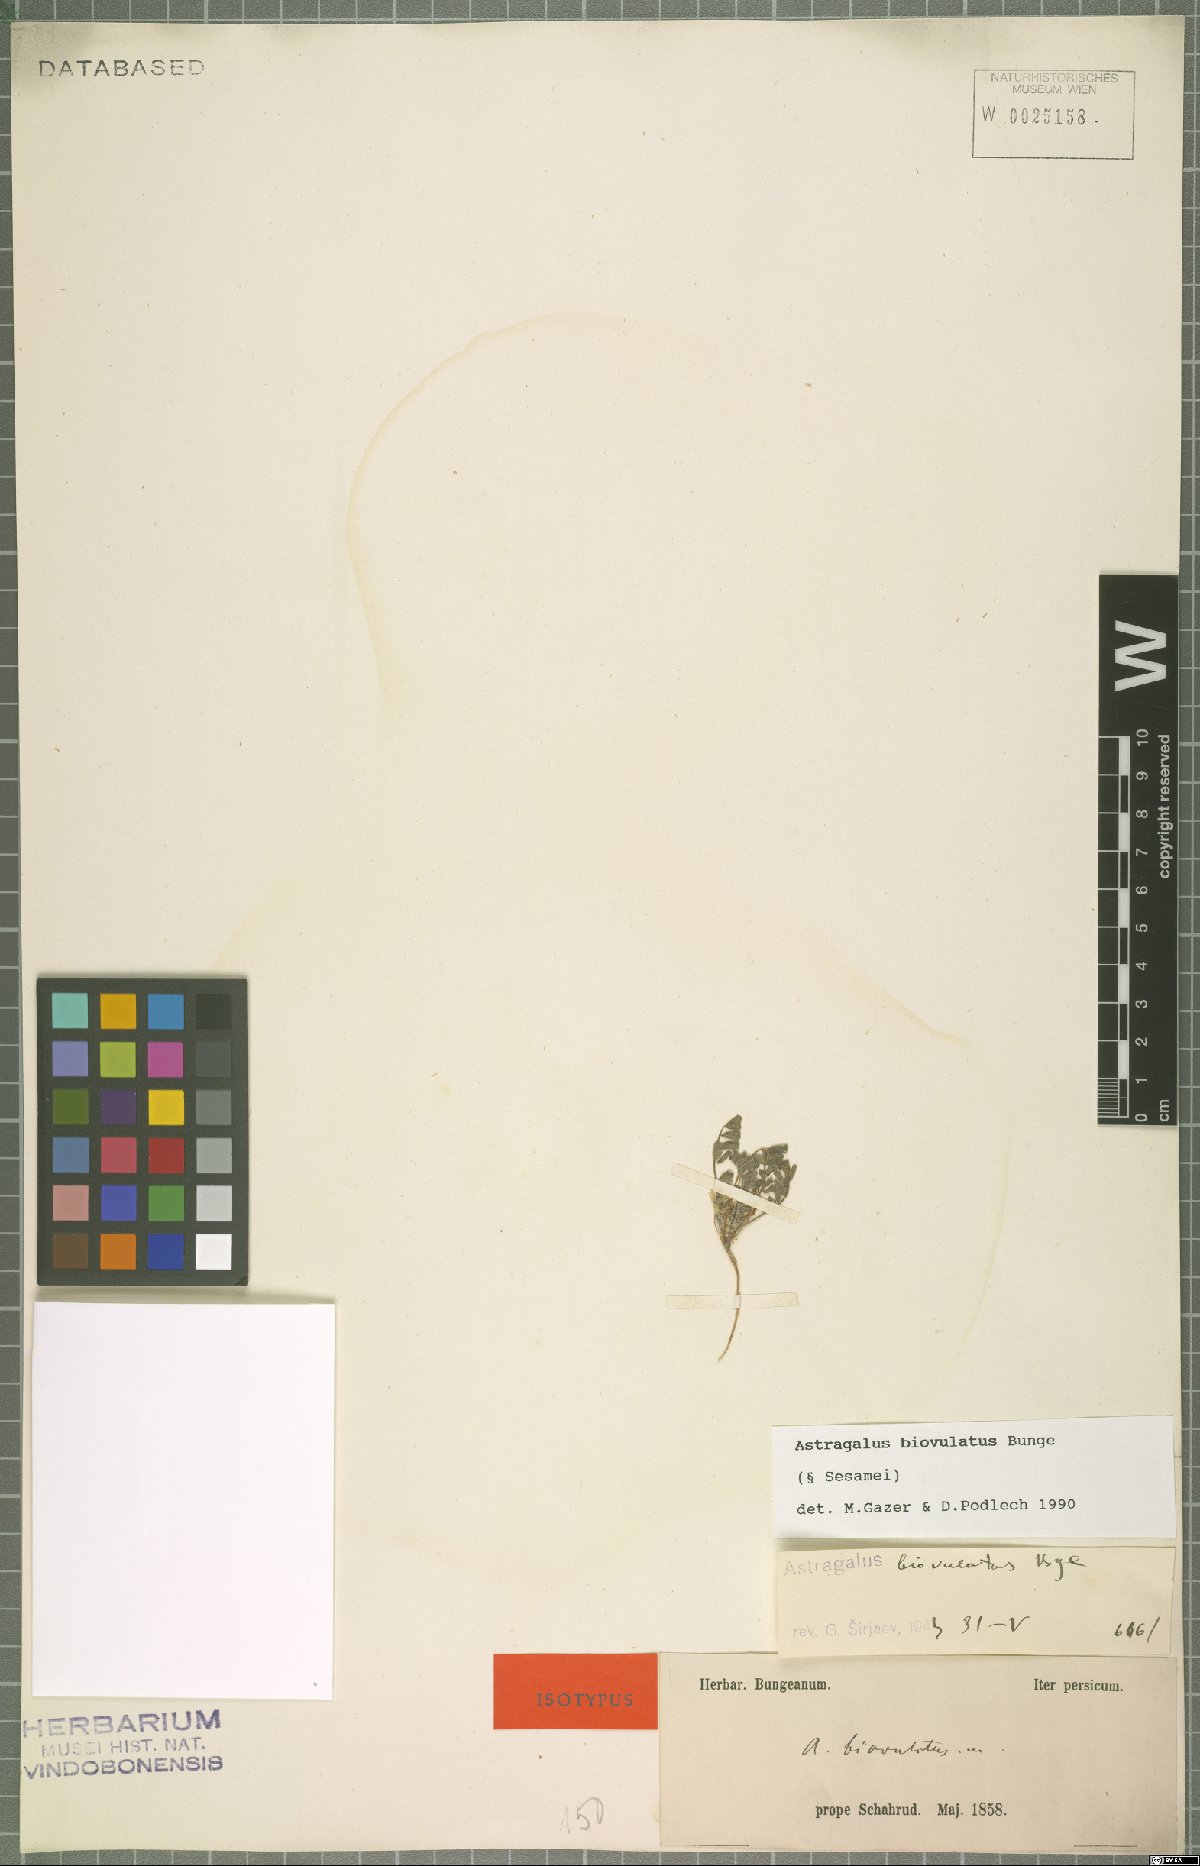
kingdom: Plantae
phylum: Tracheophyta
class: Magnoliopsida
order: Fabales
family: Fabaceae
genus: Astragalus
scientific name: Astragalus biovulatus
